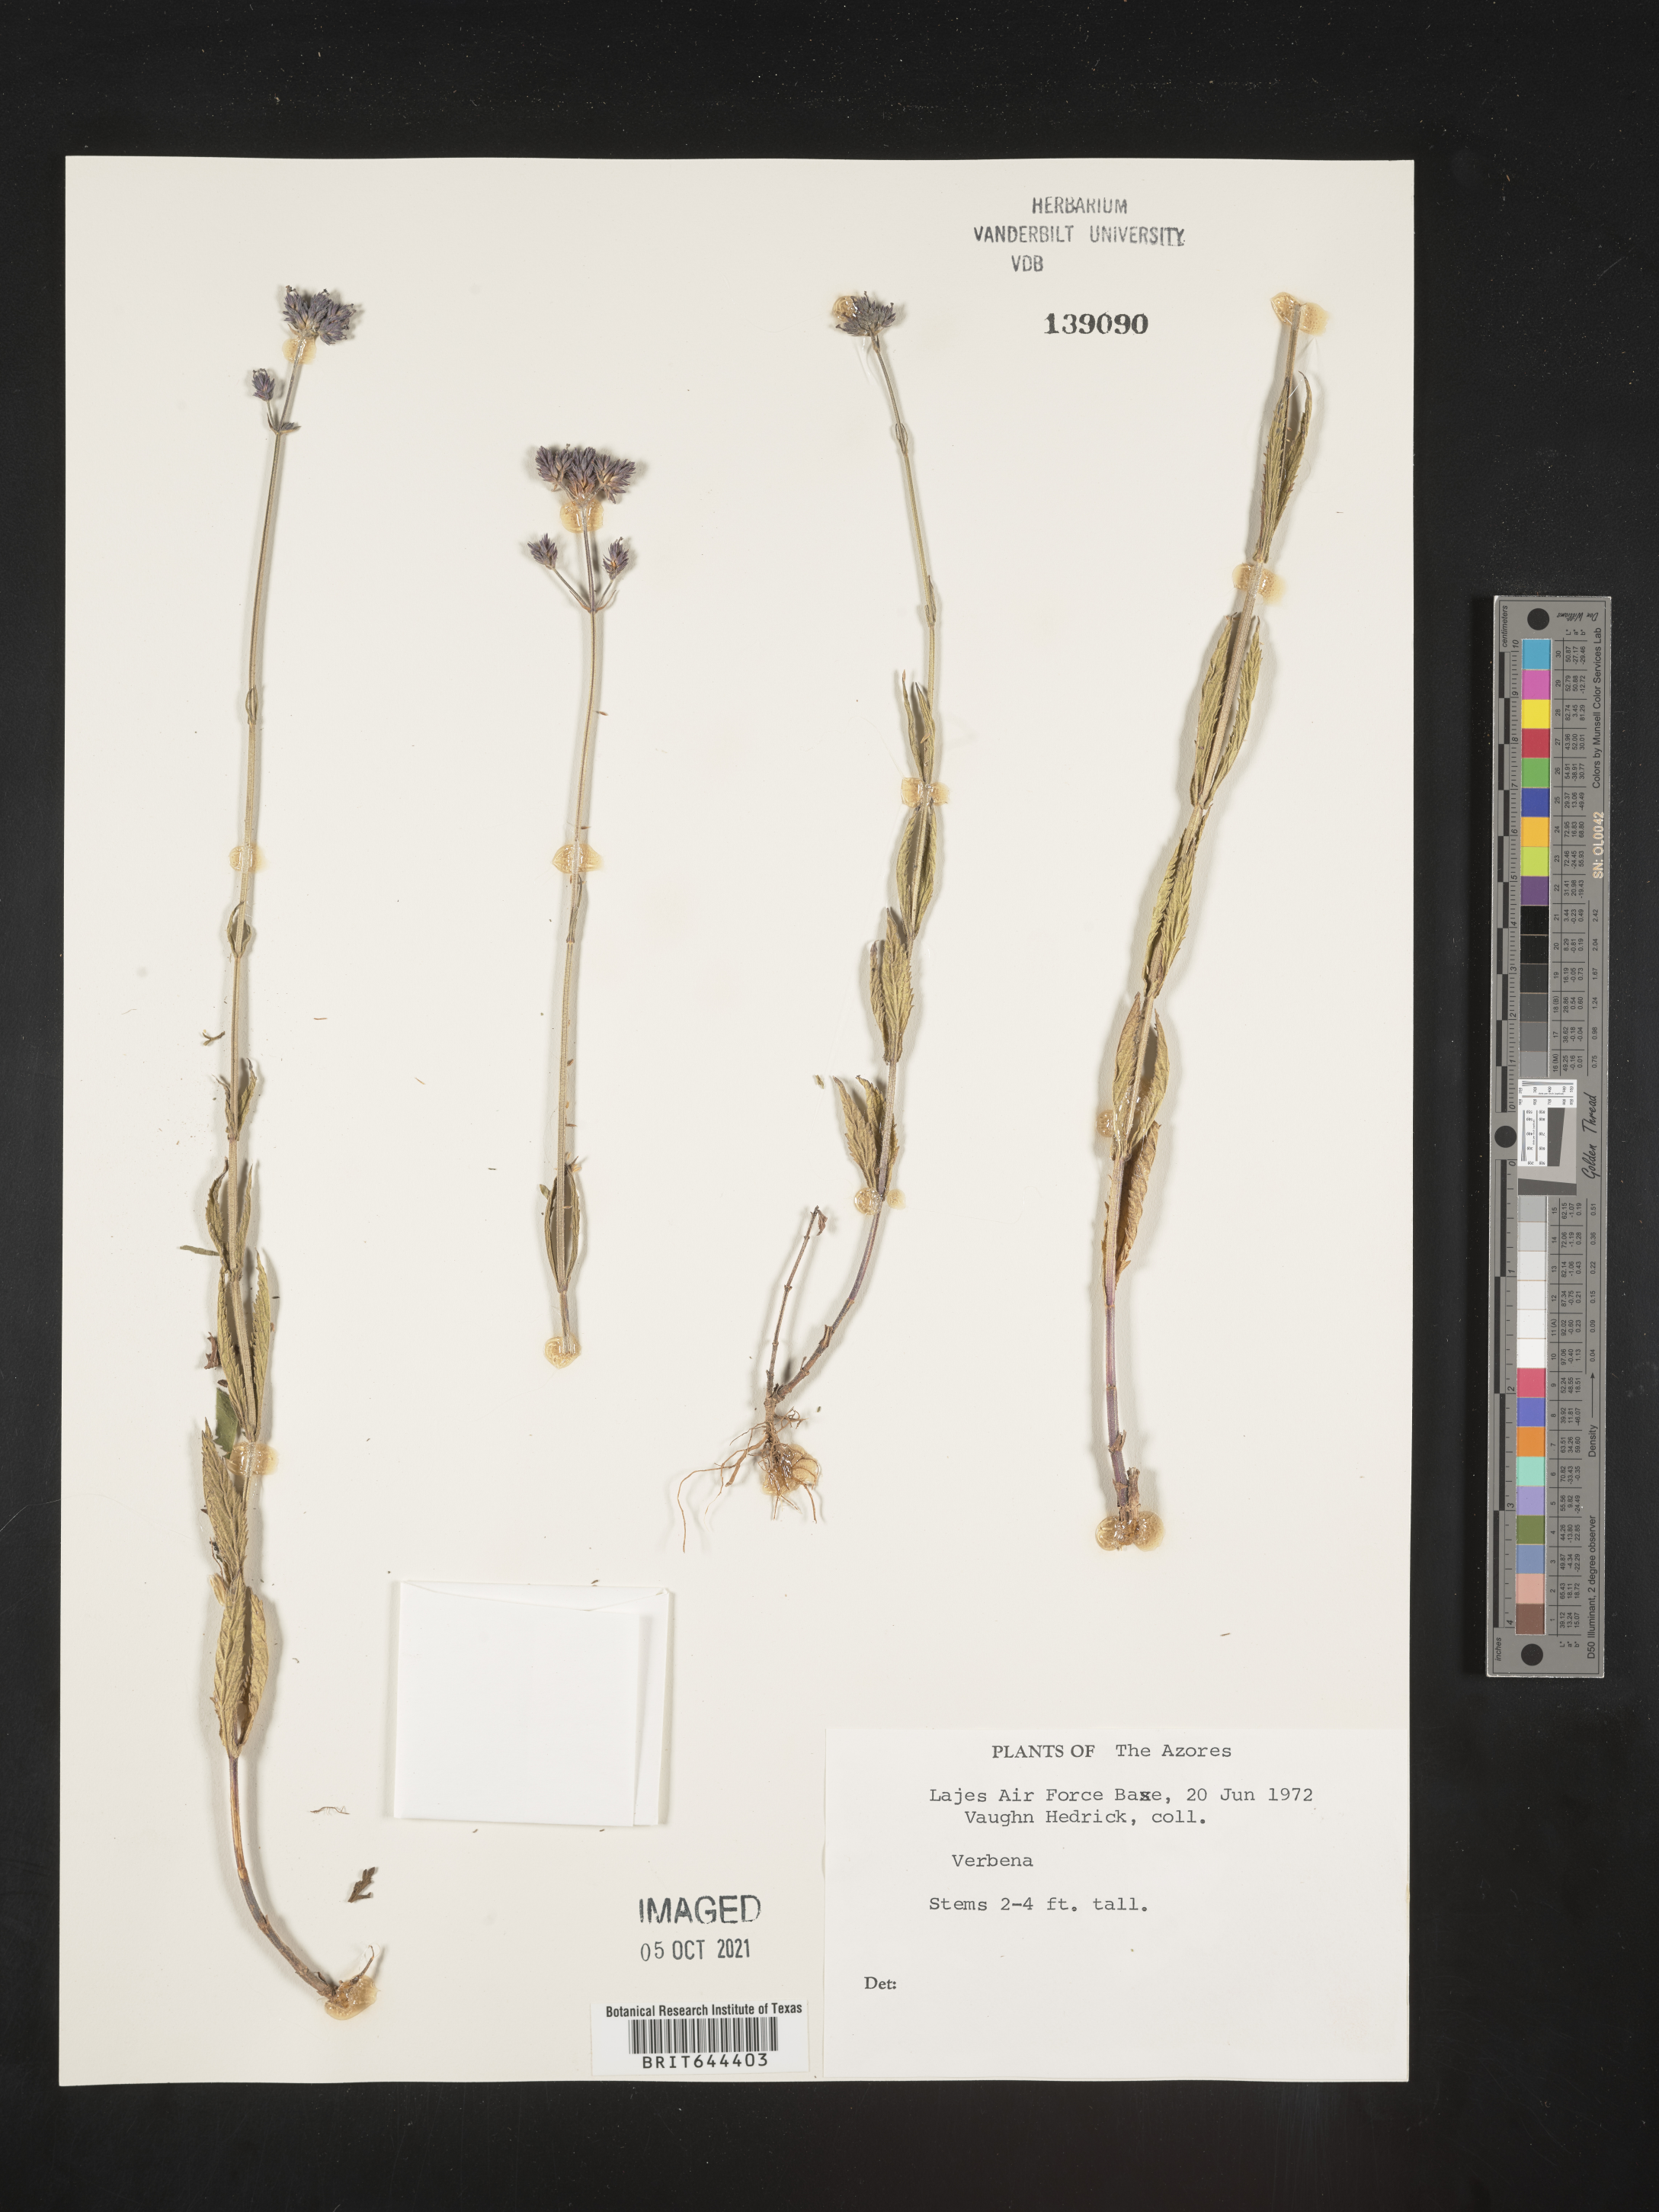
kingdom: Plantae
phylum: Tracheophyta
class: Magnoliopsida
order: Lamiales
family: Verbenaceae
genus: Verbena
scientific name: Verbena
